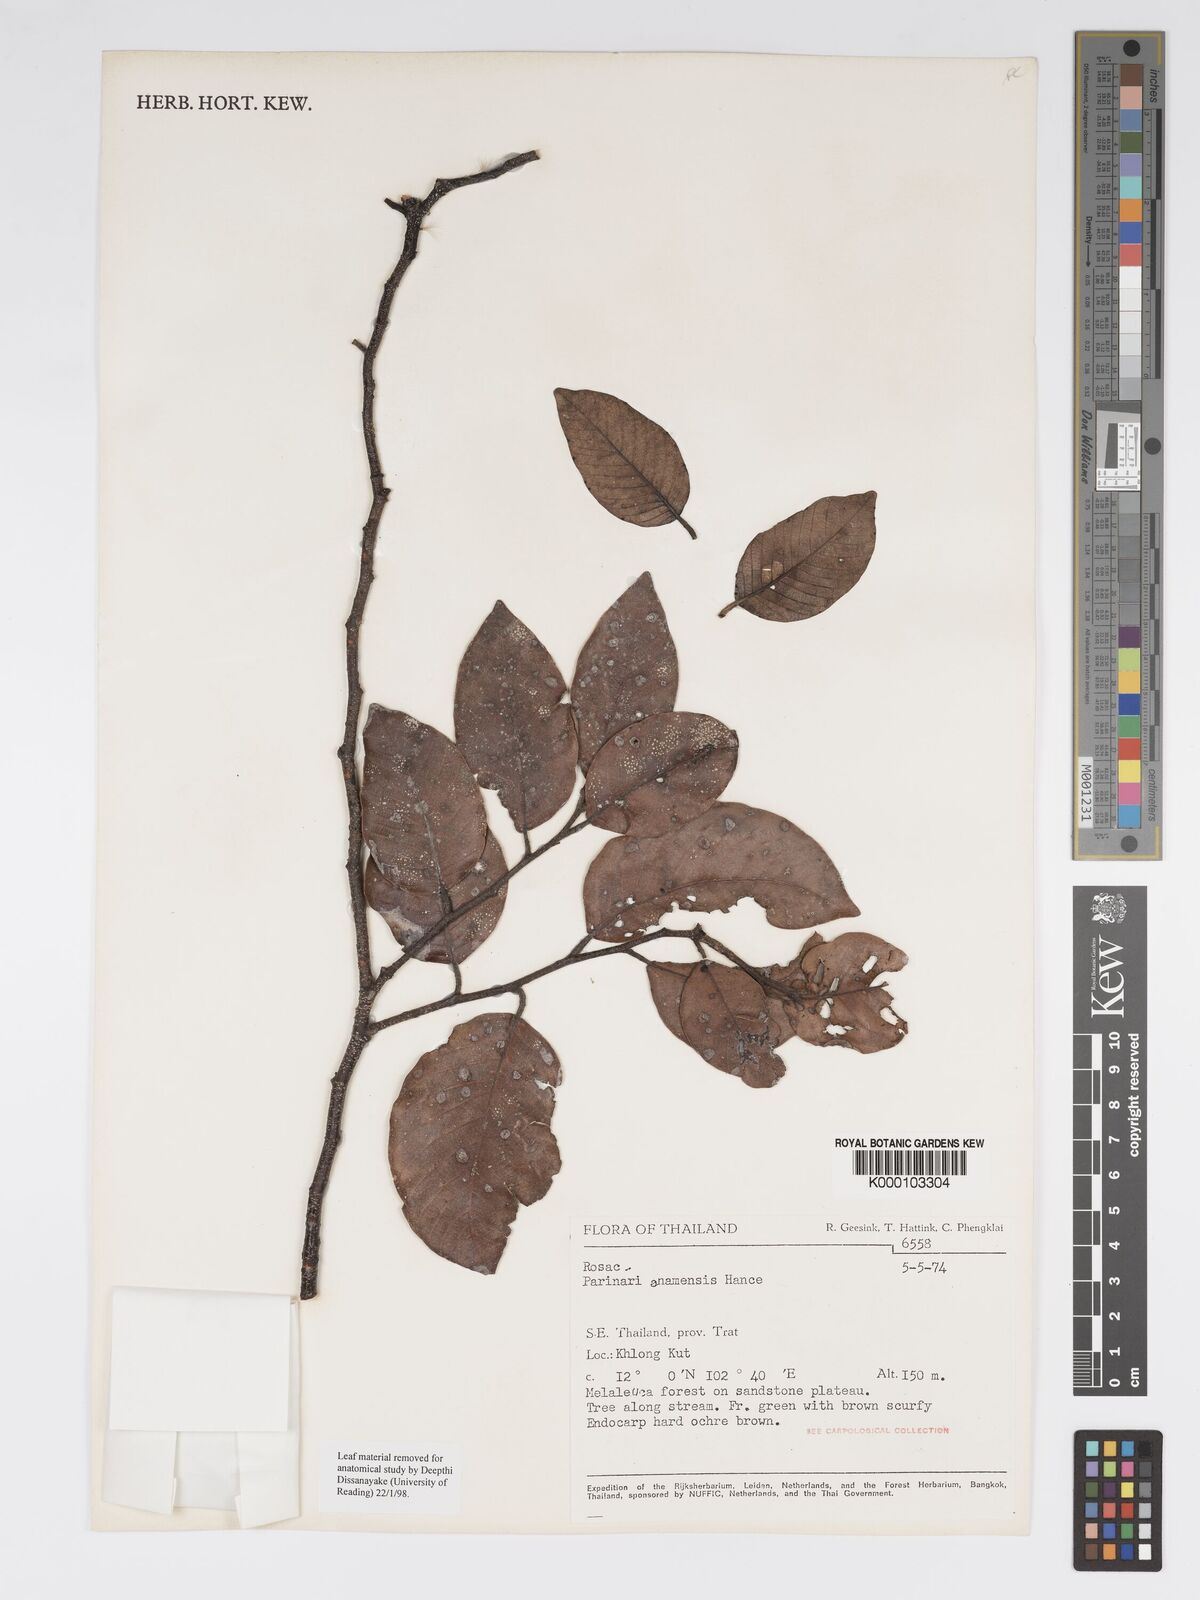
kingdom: Plantae
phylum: Tracheophyta
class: Magnoliopsida
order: Malpighiales
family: Chrysobalanaceae
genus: Parinari
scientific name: Parinari anamensis
